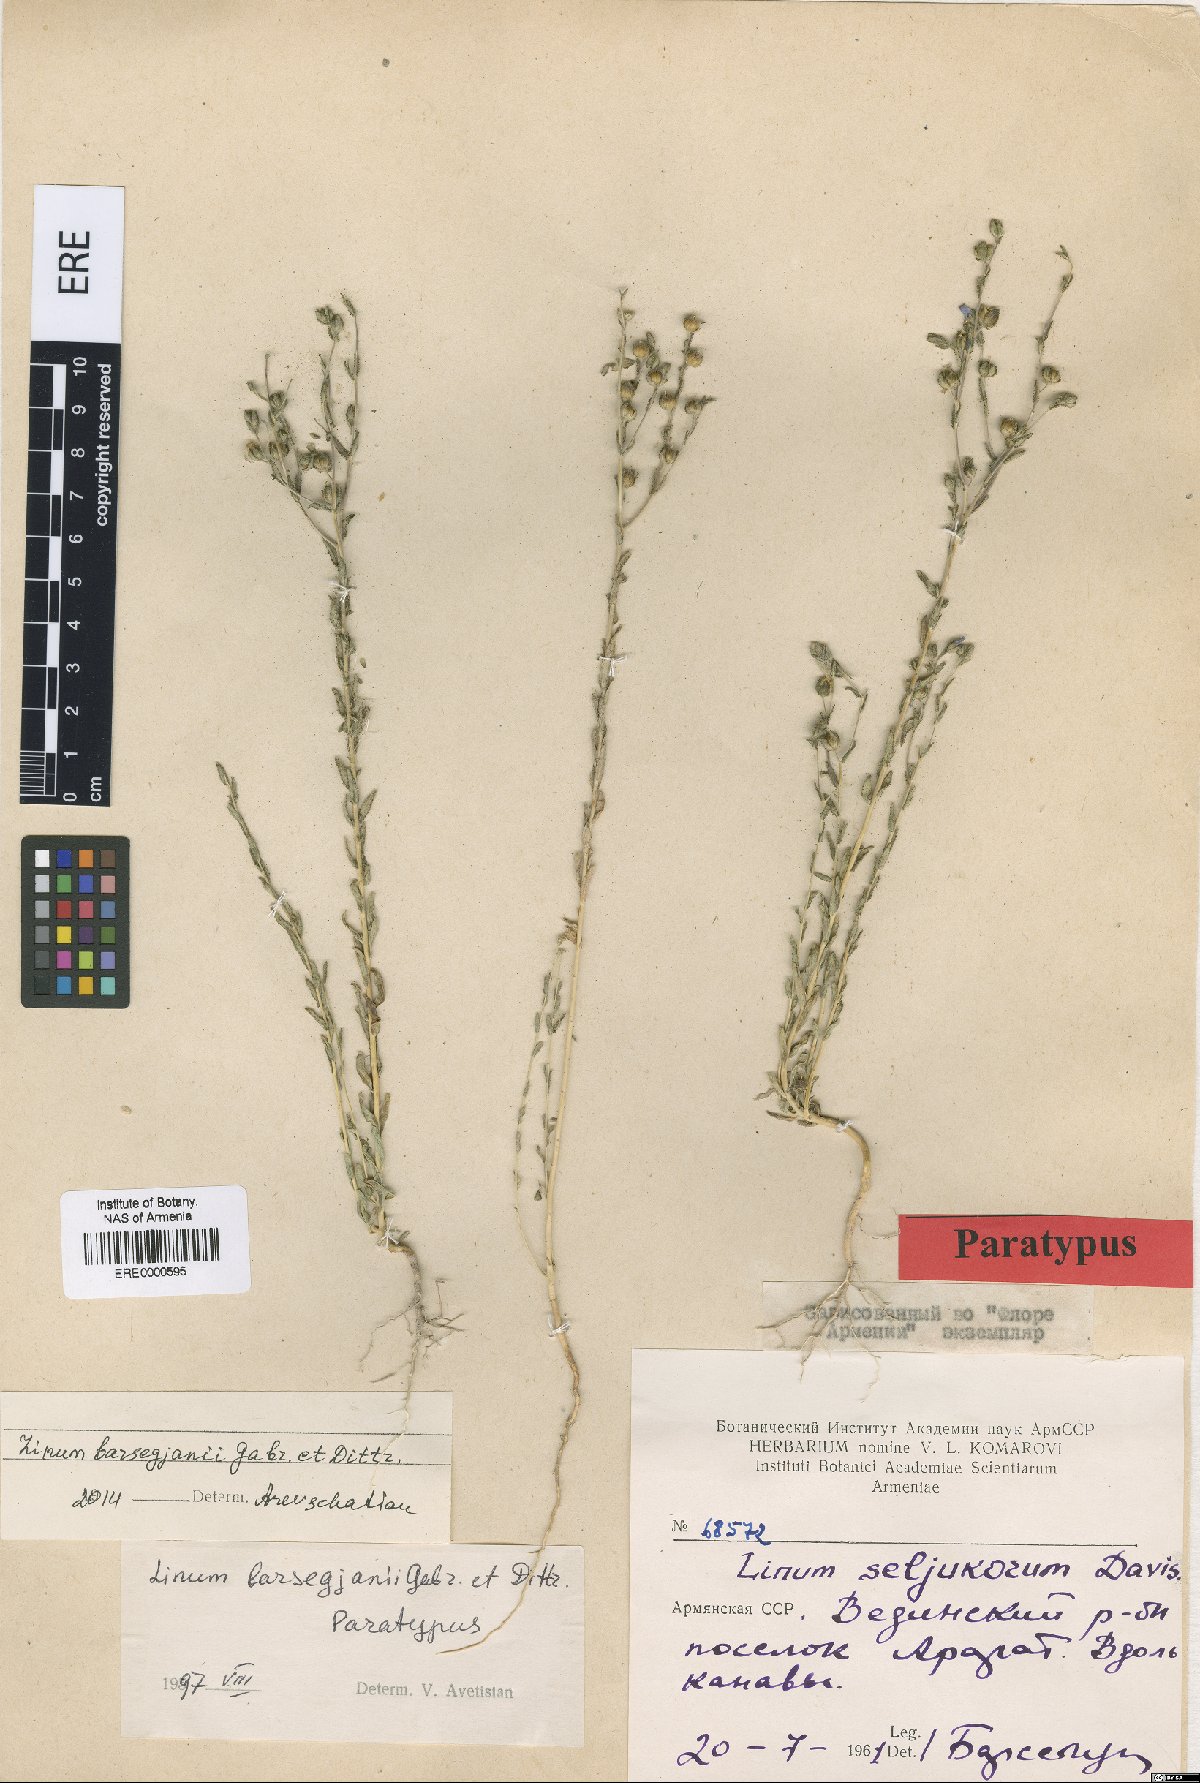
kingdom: Plantae
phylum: Tracheophyta
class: Magnoliopsida
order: Malpighiales
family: Linaceae
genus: Linum
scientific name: Linum seljukorum
